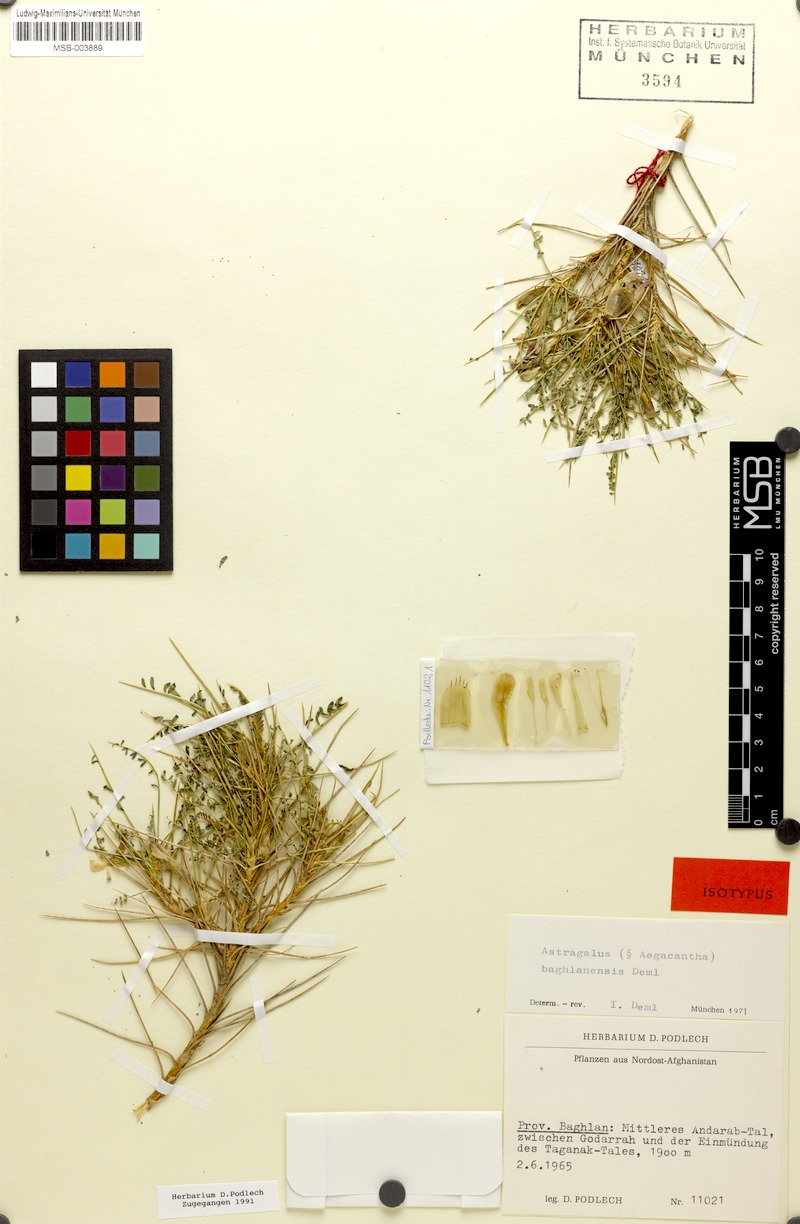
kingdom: Plantae
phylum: Tracheophyta
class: Magnoliopsida
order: Fabales
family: Fabaceae
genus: Astragalus
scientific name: Astragalus baghlanensis
